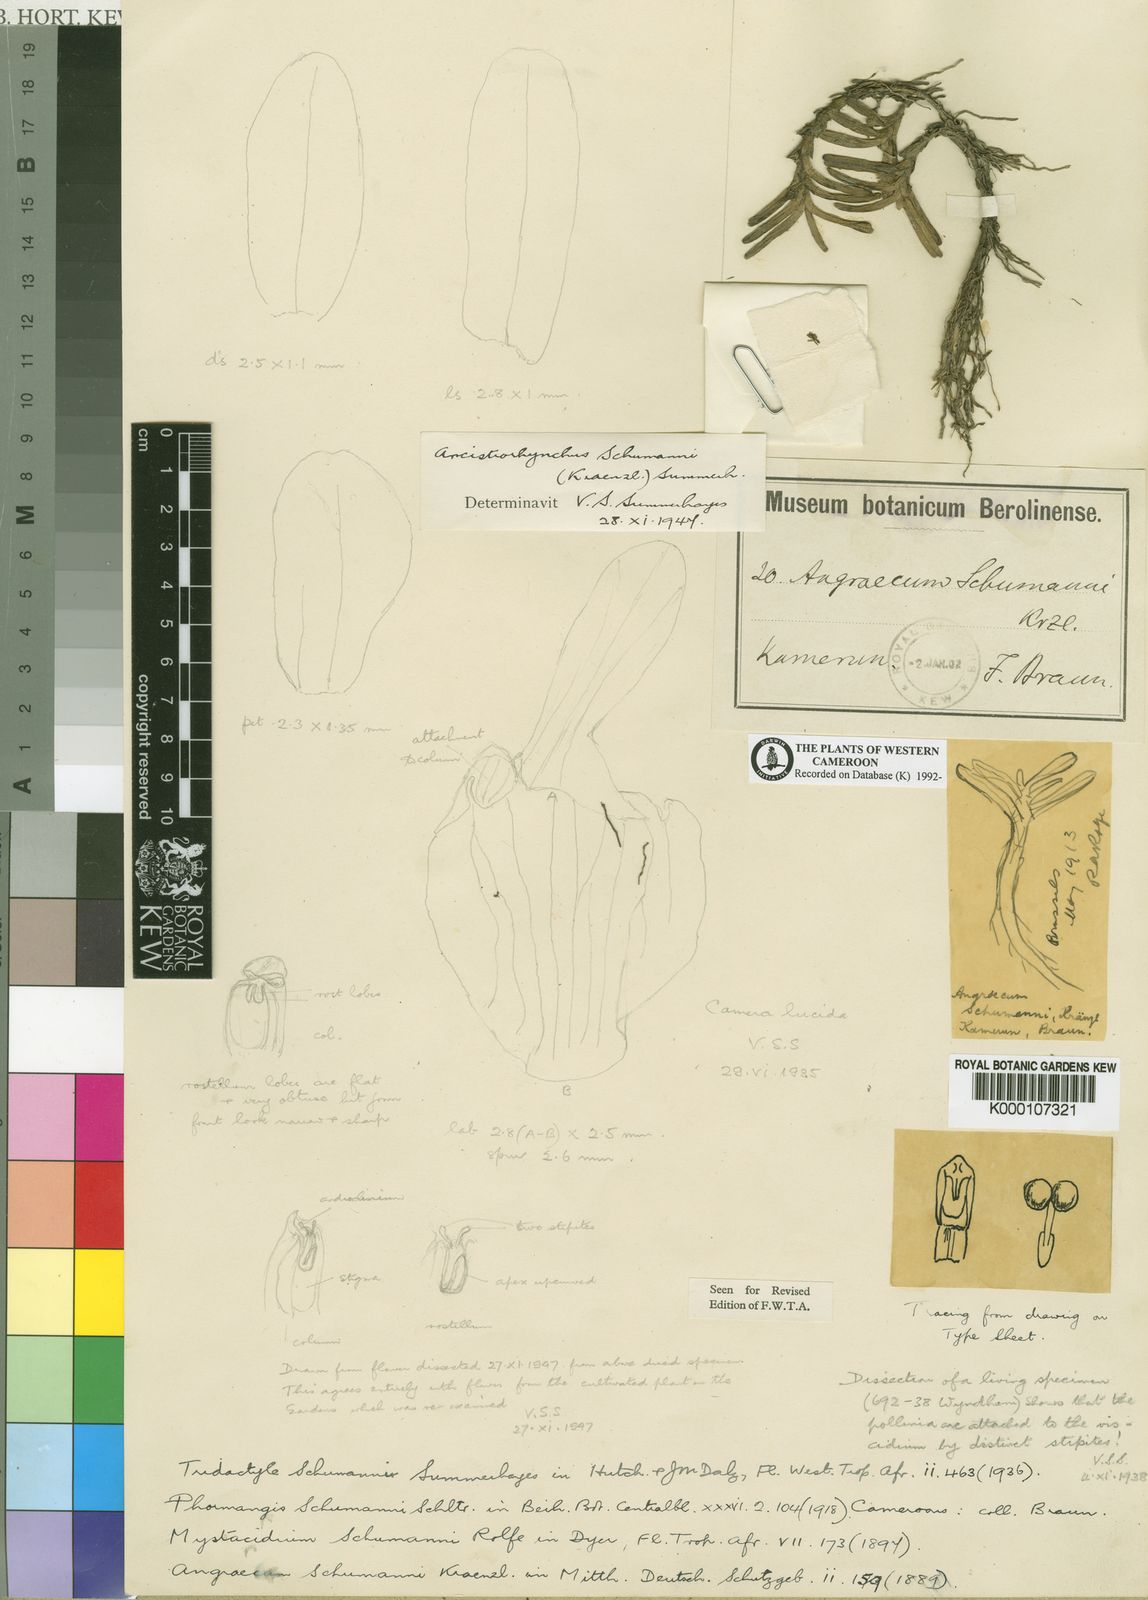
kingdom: Plantae
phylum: Tracheophyta
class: Liliopsida
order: Asparagales
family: Orchidaceae
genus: Ancistrorhynchus
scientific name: Ancistrorhynchus schumannii
